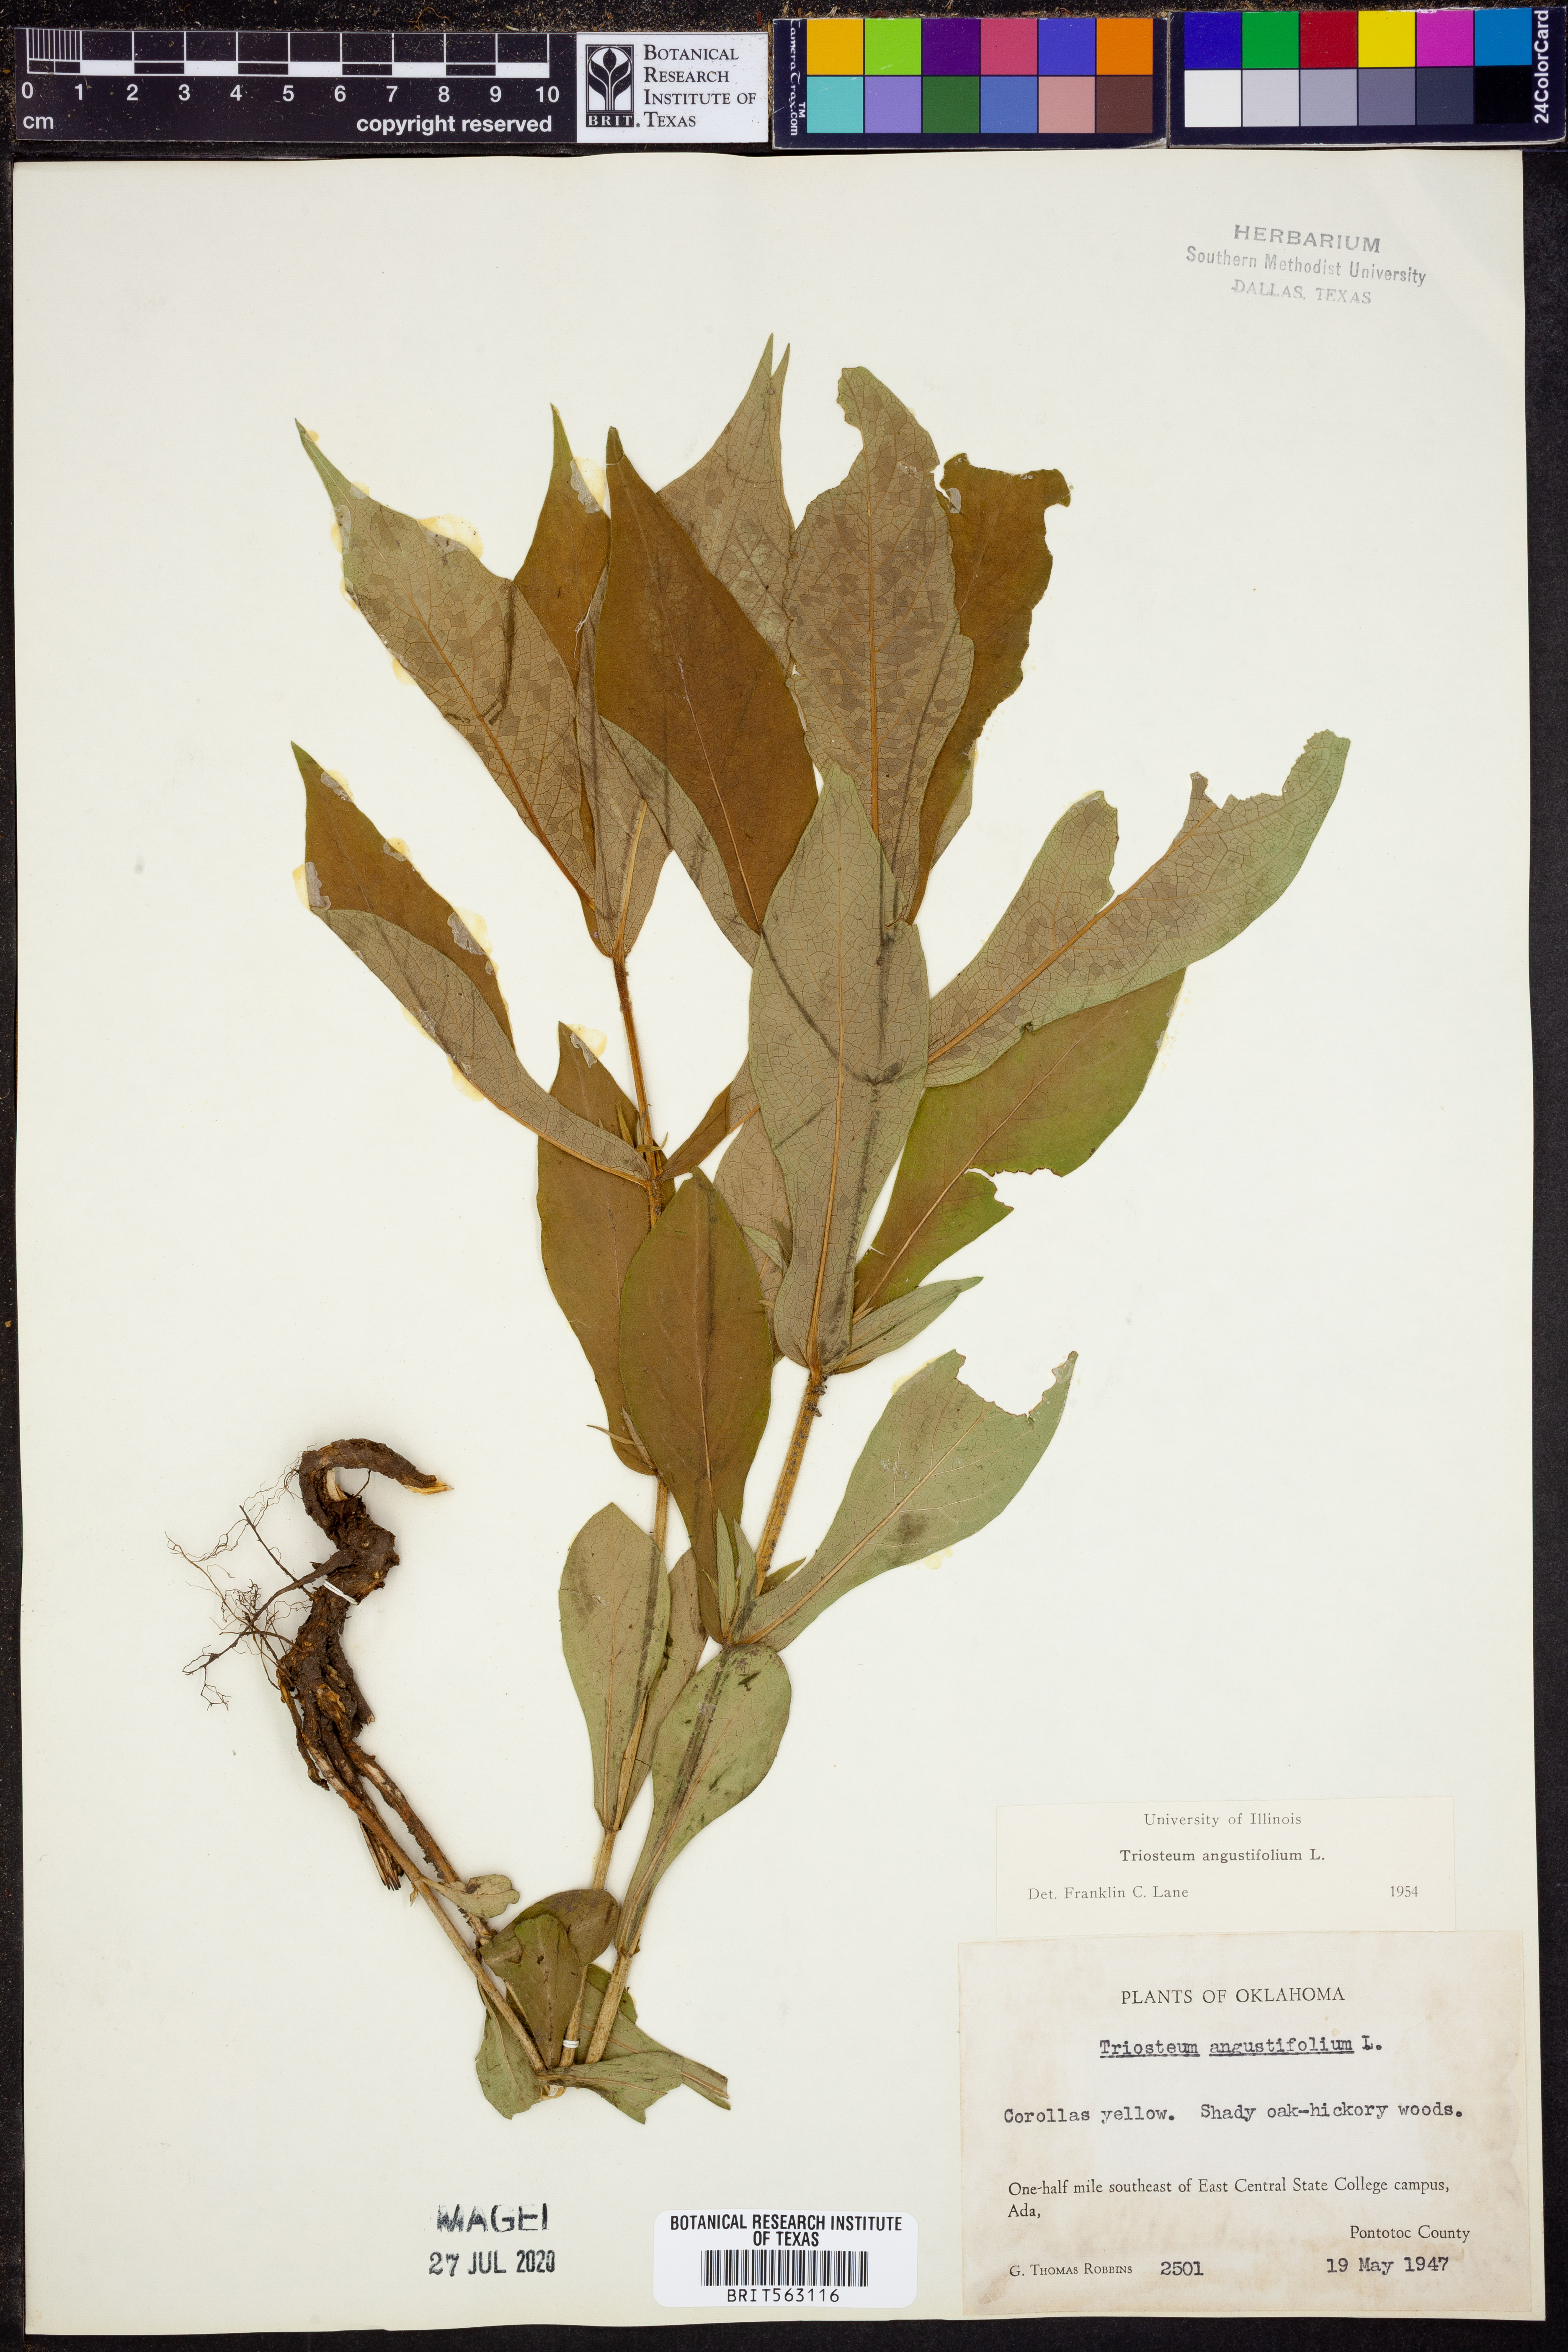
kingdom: Plantae
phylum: Tracheophyta
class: Magnoliopsida
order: Dipsacales
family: Caprifoliaceae
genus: Triosteum
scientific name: Triosteum angustifolium
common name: Narrow-leaved horse-gentian
